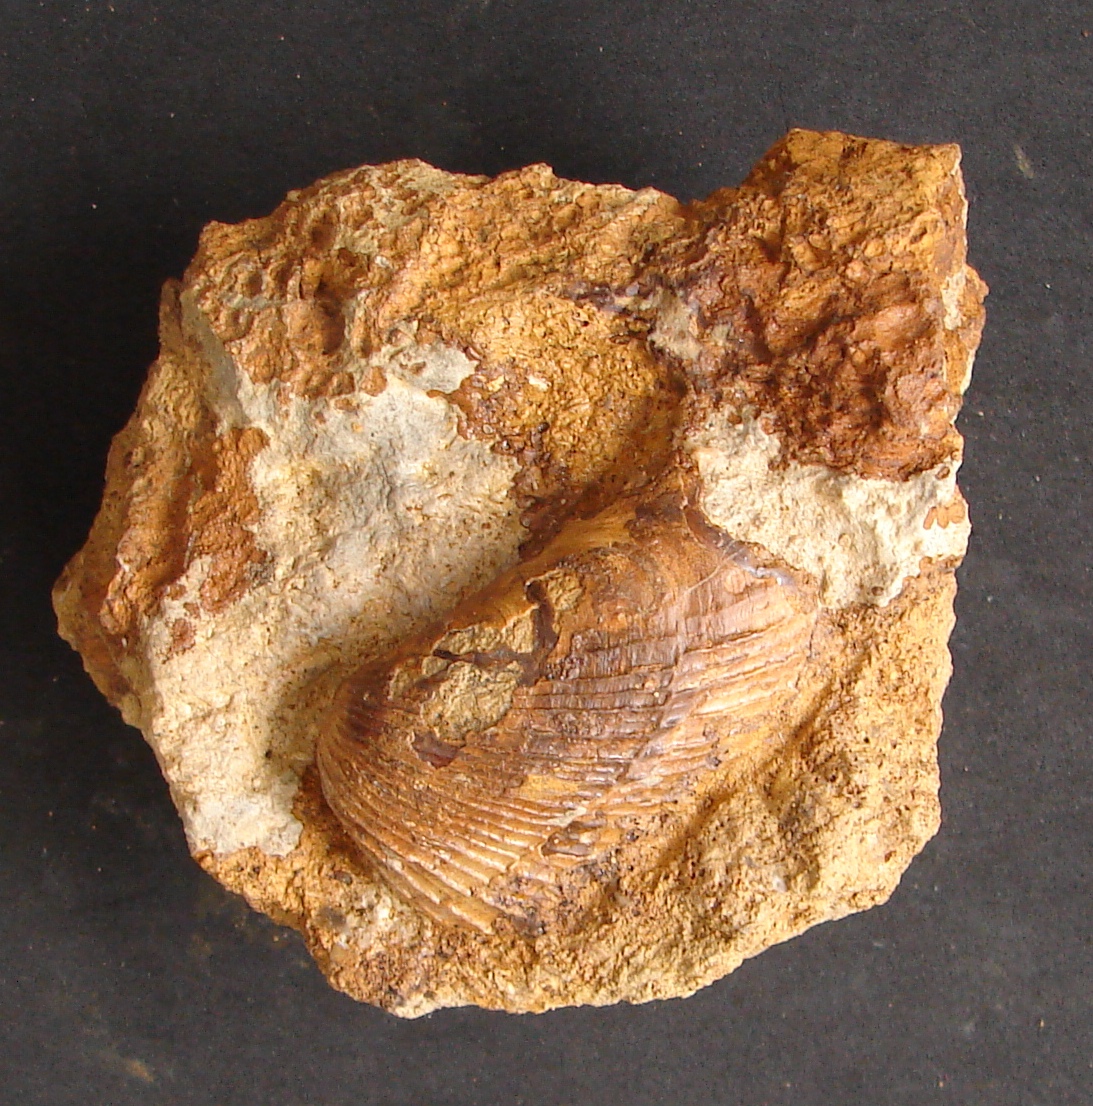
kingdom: Animalia
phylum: Mollusca
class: Bivalvia
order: Myida
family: Pleuromyidae
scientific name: Pleuromyidae
